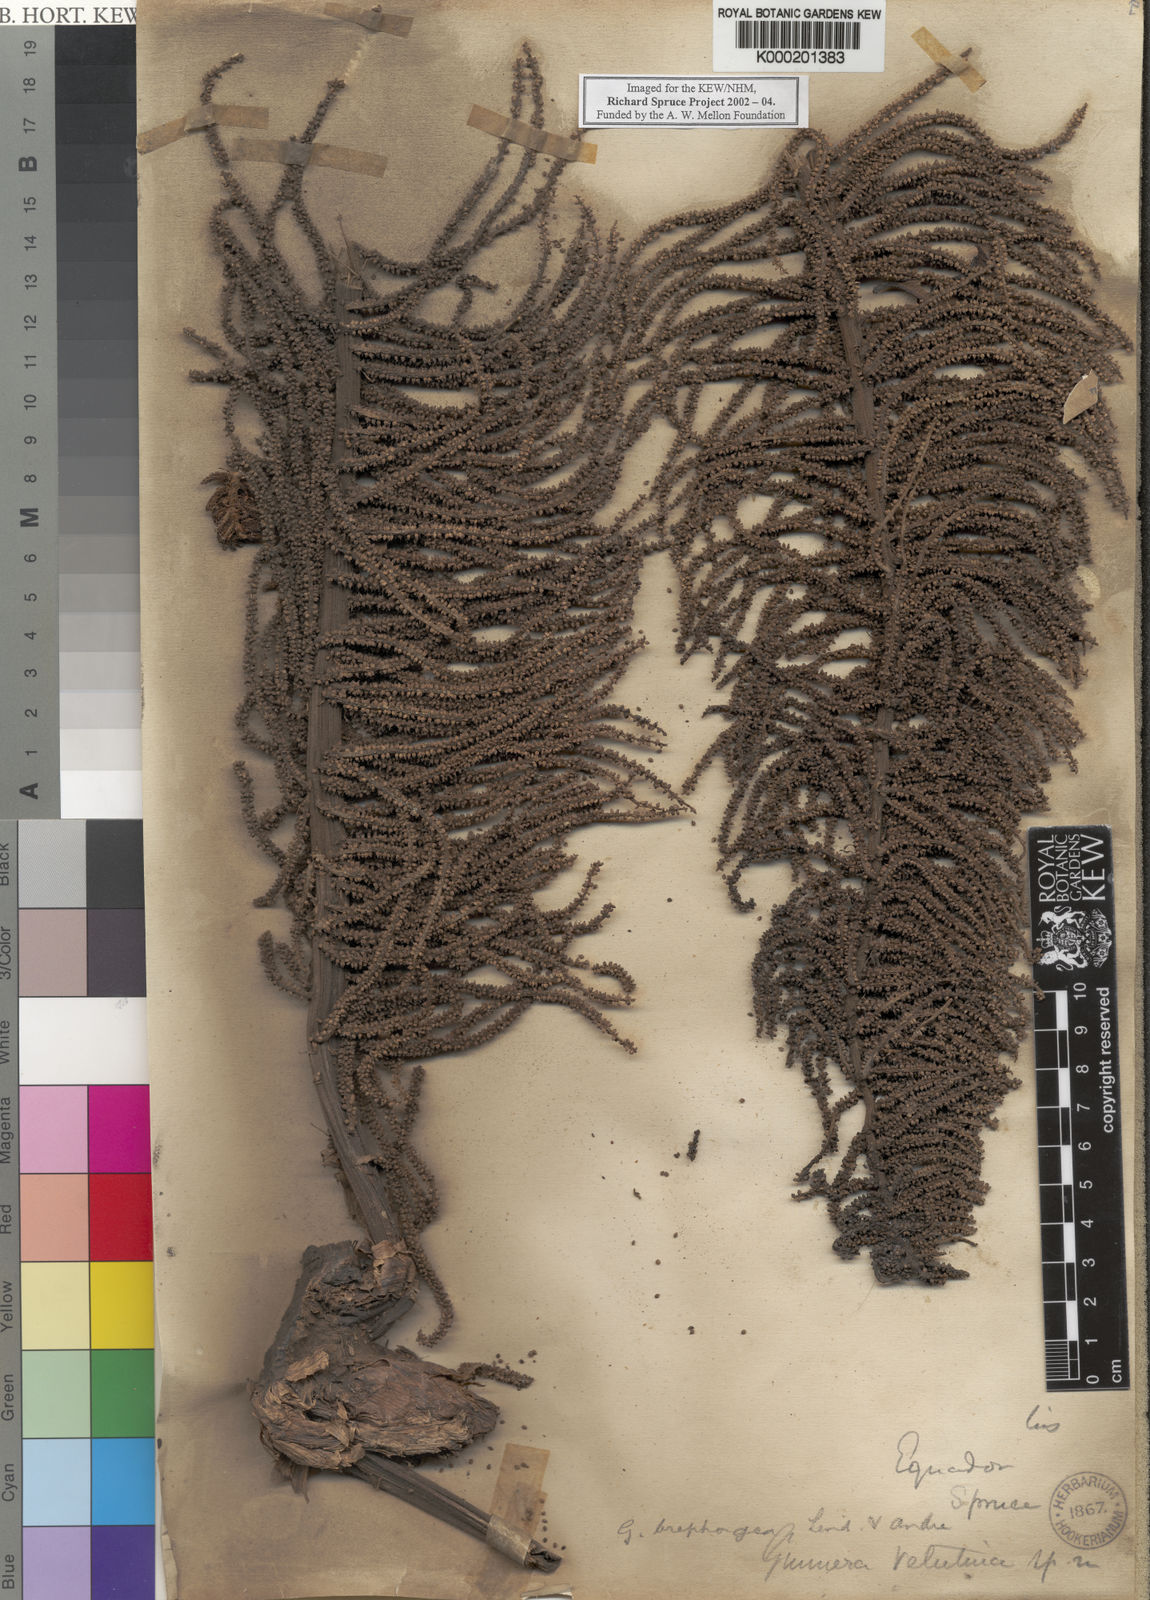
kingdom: Plantae
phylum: Tracheophyta
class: Magnoliopsida
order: Gunnerales
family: Gunneraceae
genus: Gunnera
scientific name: Gunnera
